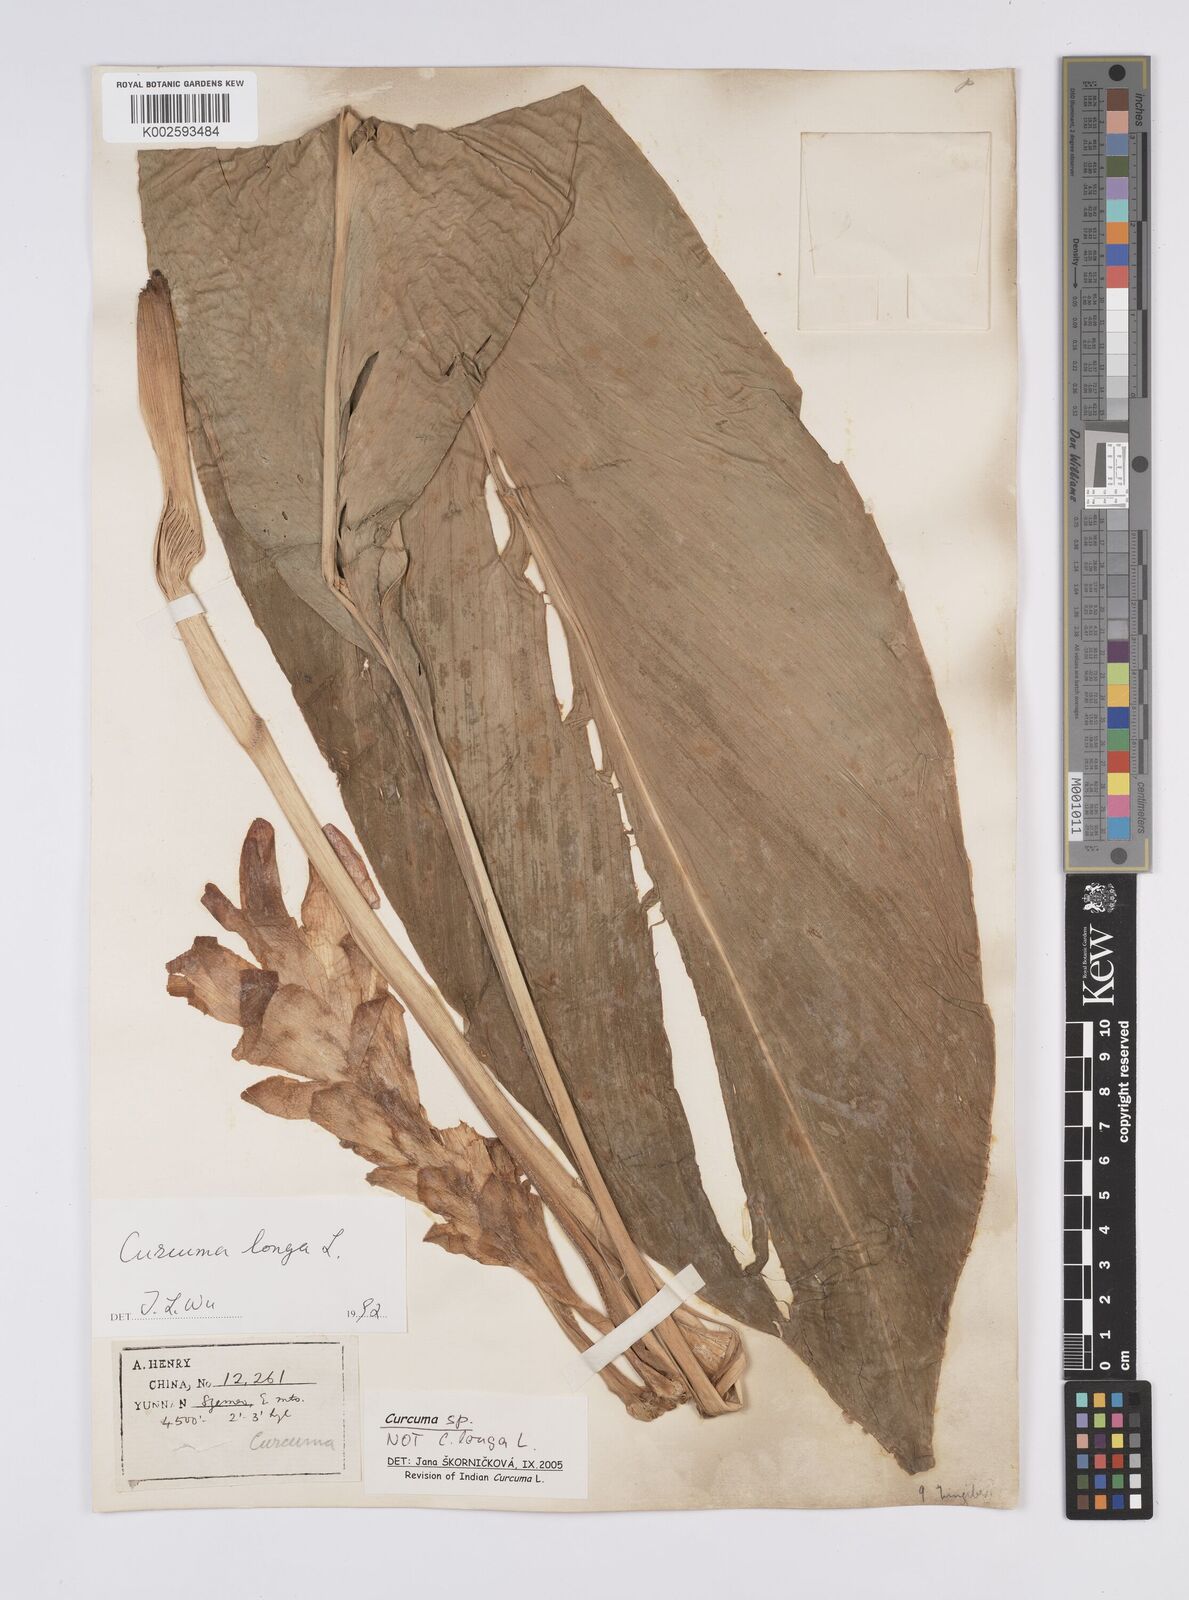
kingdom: Plantae
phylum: Tracheophyta
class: Liliopsida
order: Zingiberales
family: Zingiberaceae
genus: Curcuma
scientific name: Curcuma
